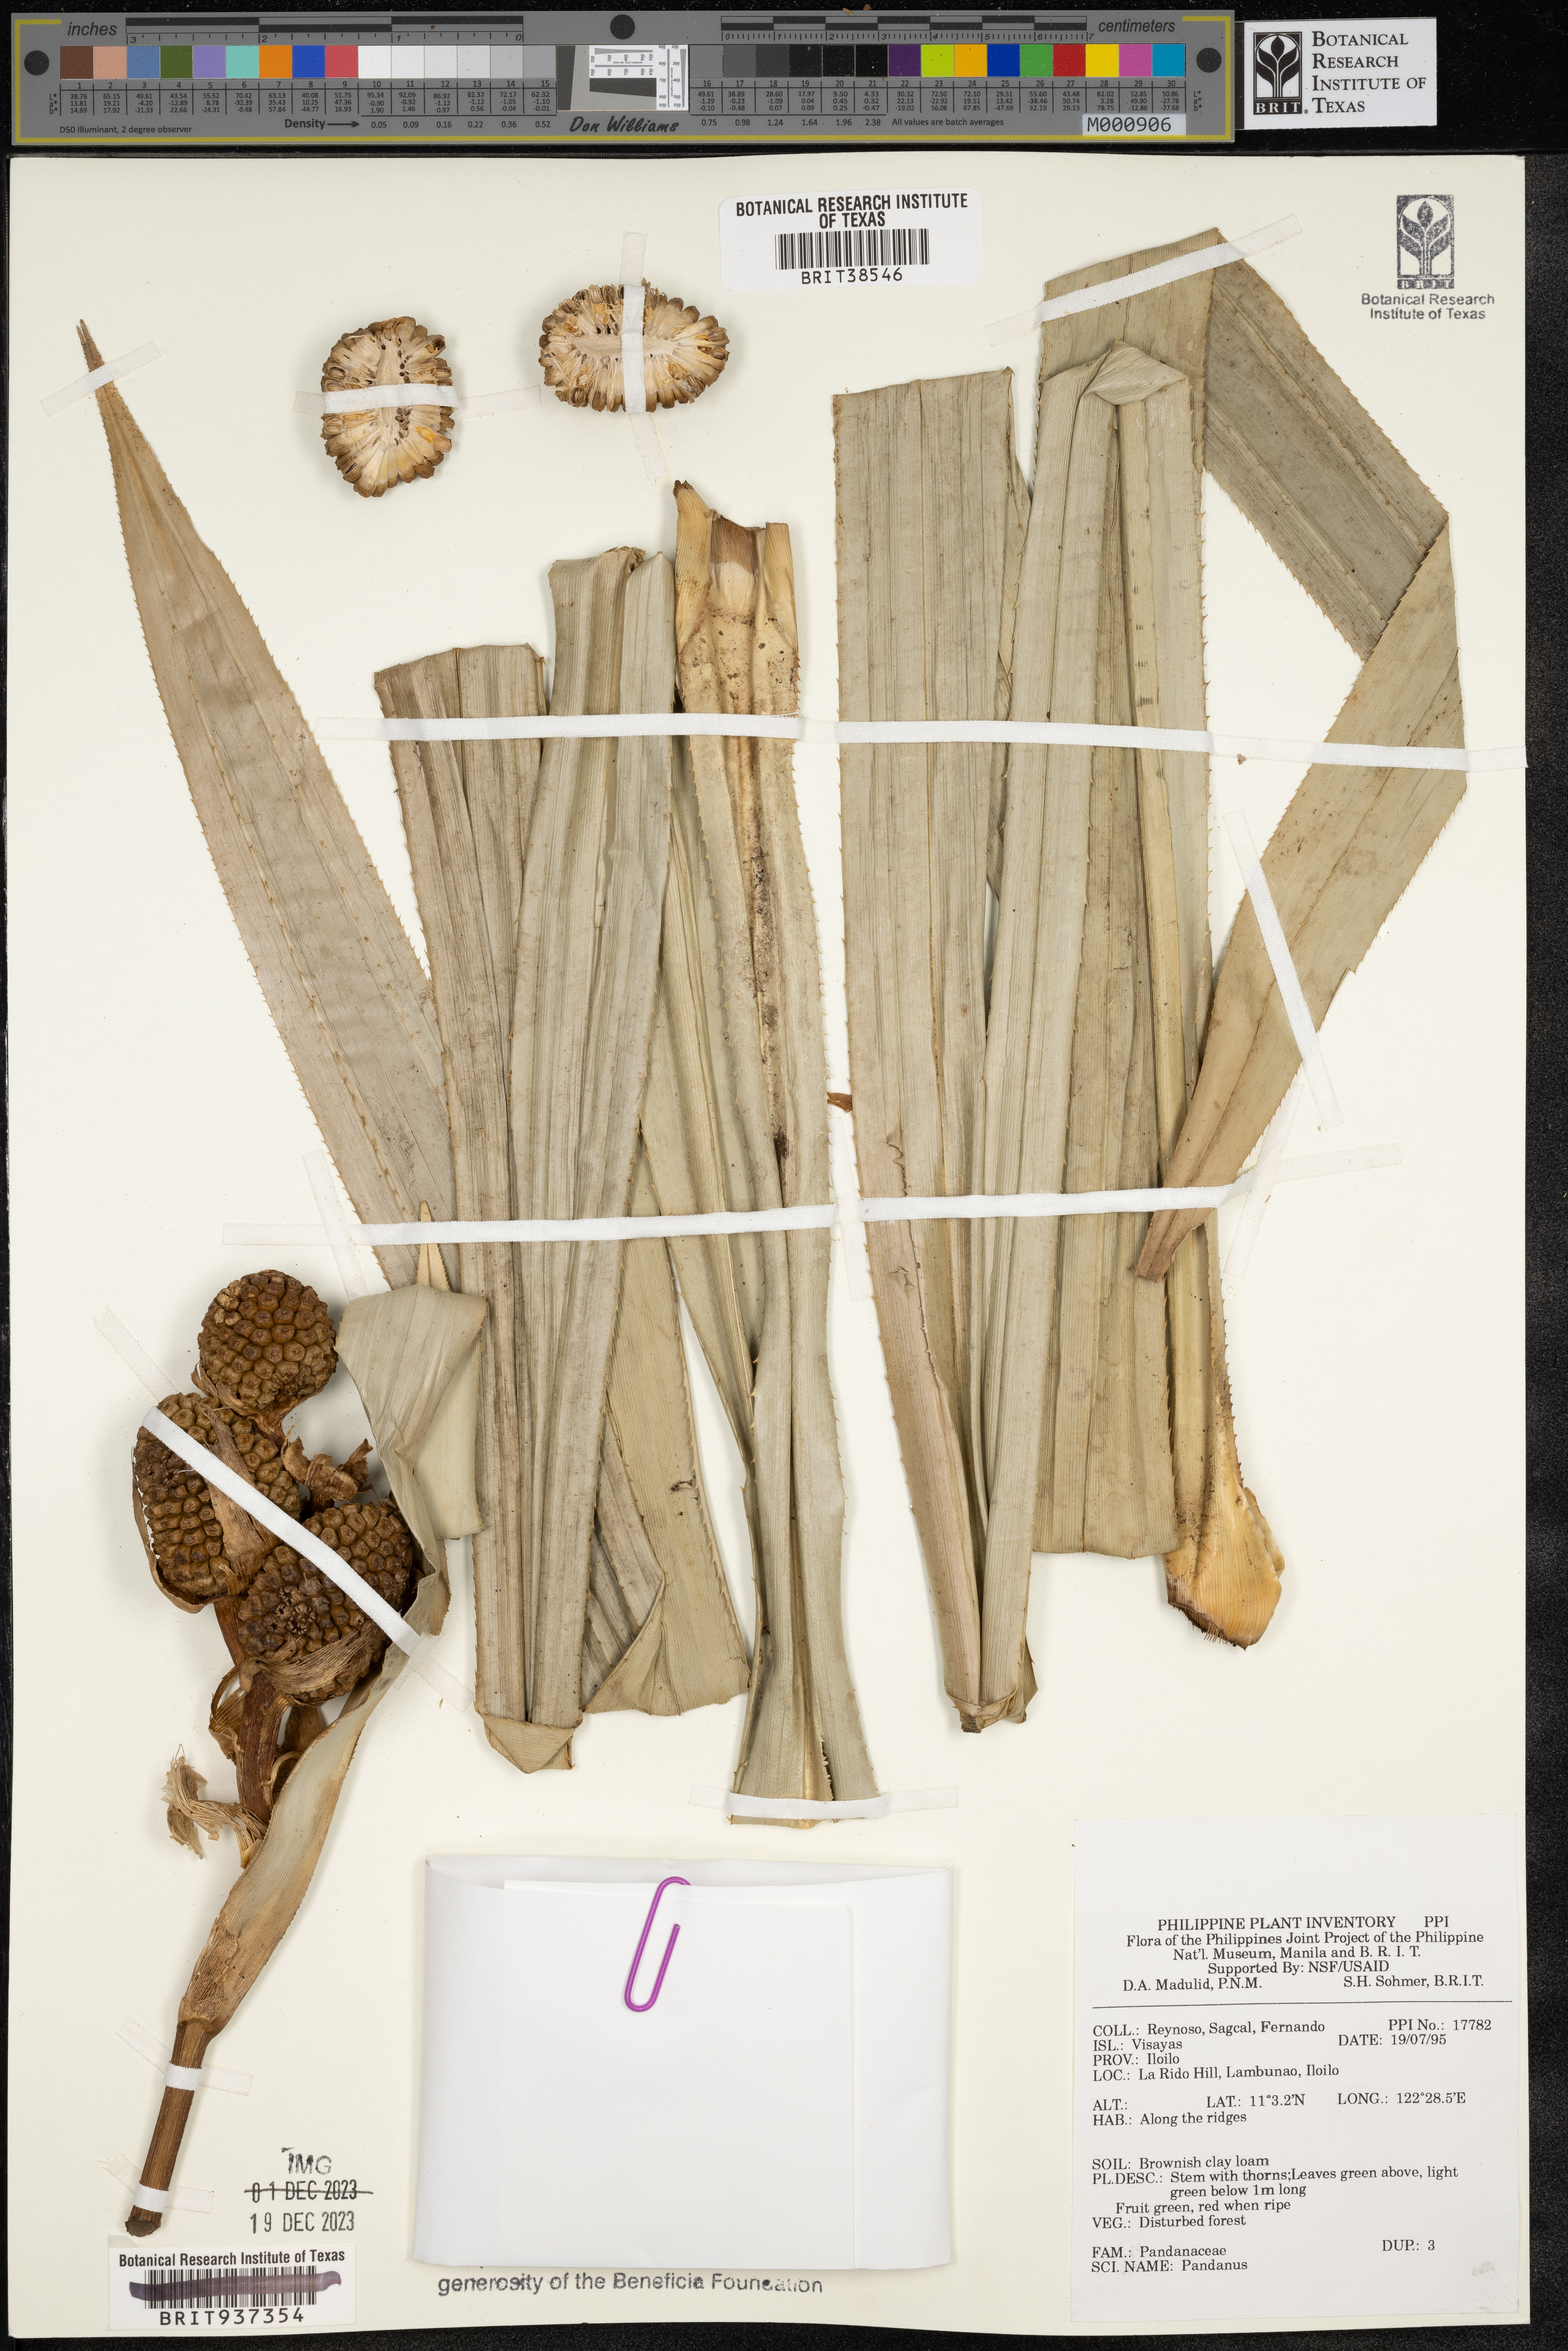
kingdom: Plantae
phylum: Tracheophyta
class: Liliopsida
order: Pandanales
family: Pandanaceae
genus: Pandanus
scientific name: Pandanus
